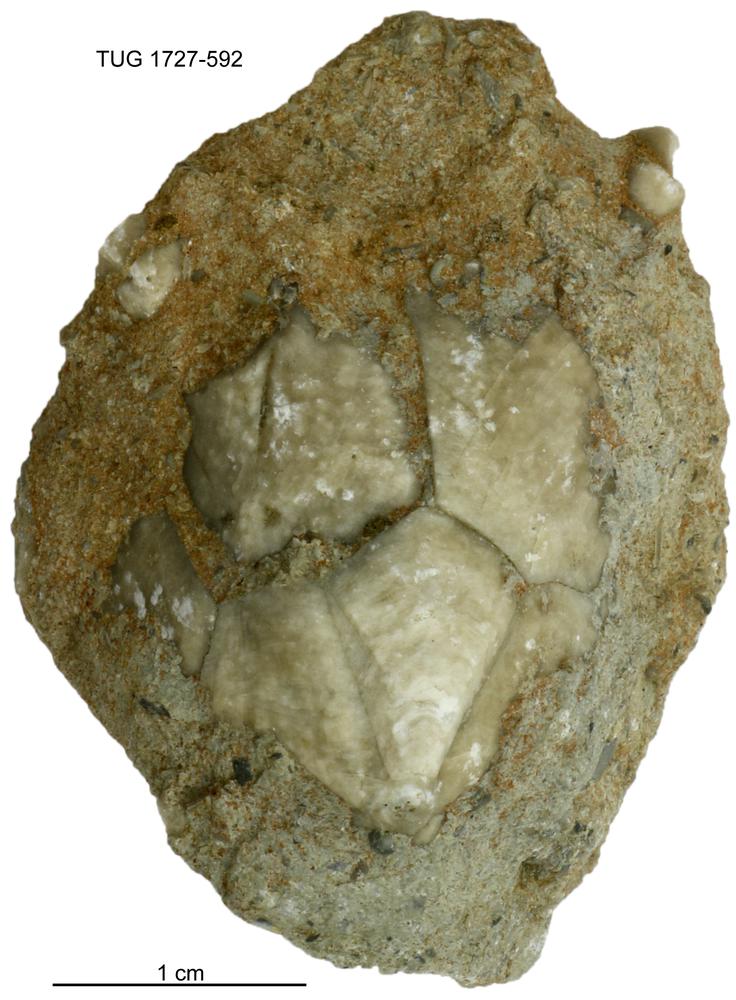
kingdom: Animalia
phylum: Echinodermata
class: Crinoidea
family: Hybocrinidae
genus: Hoplocrinus
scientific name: Hoplocrinus
